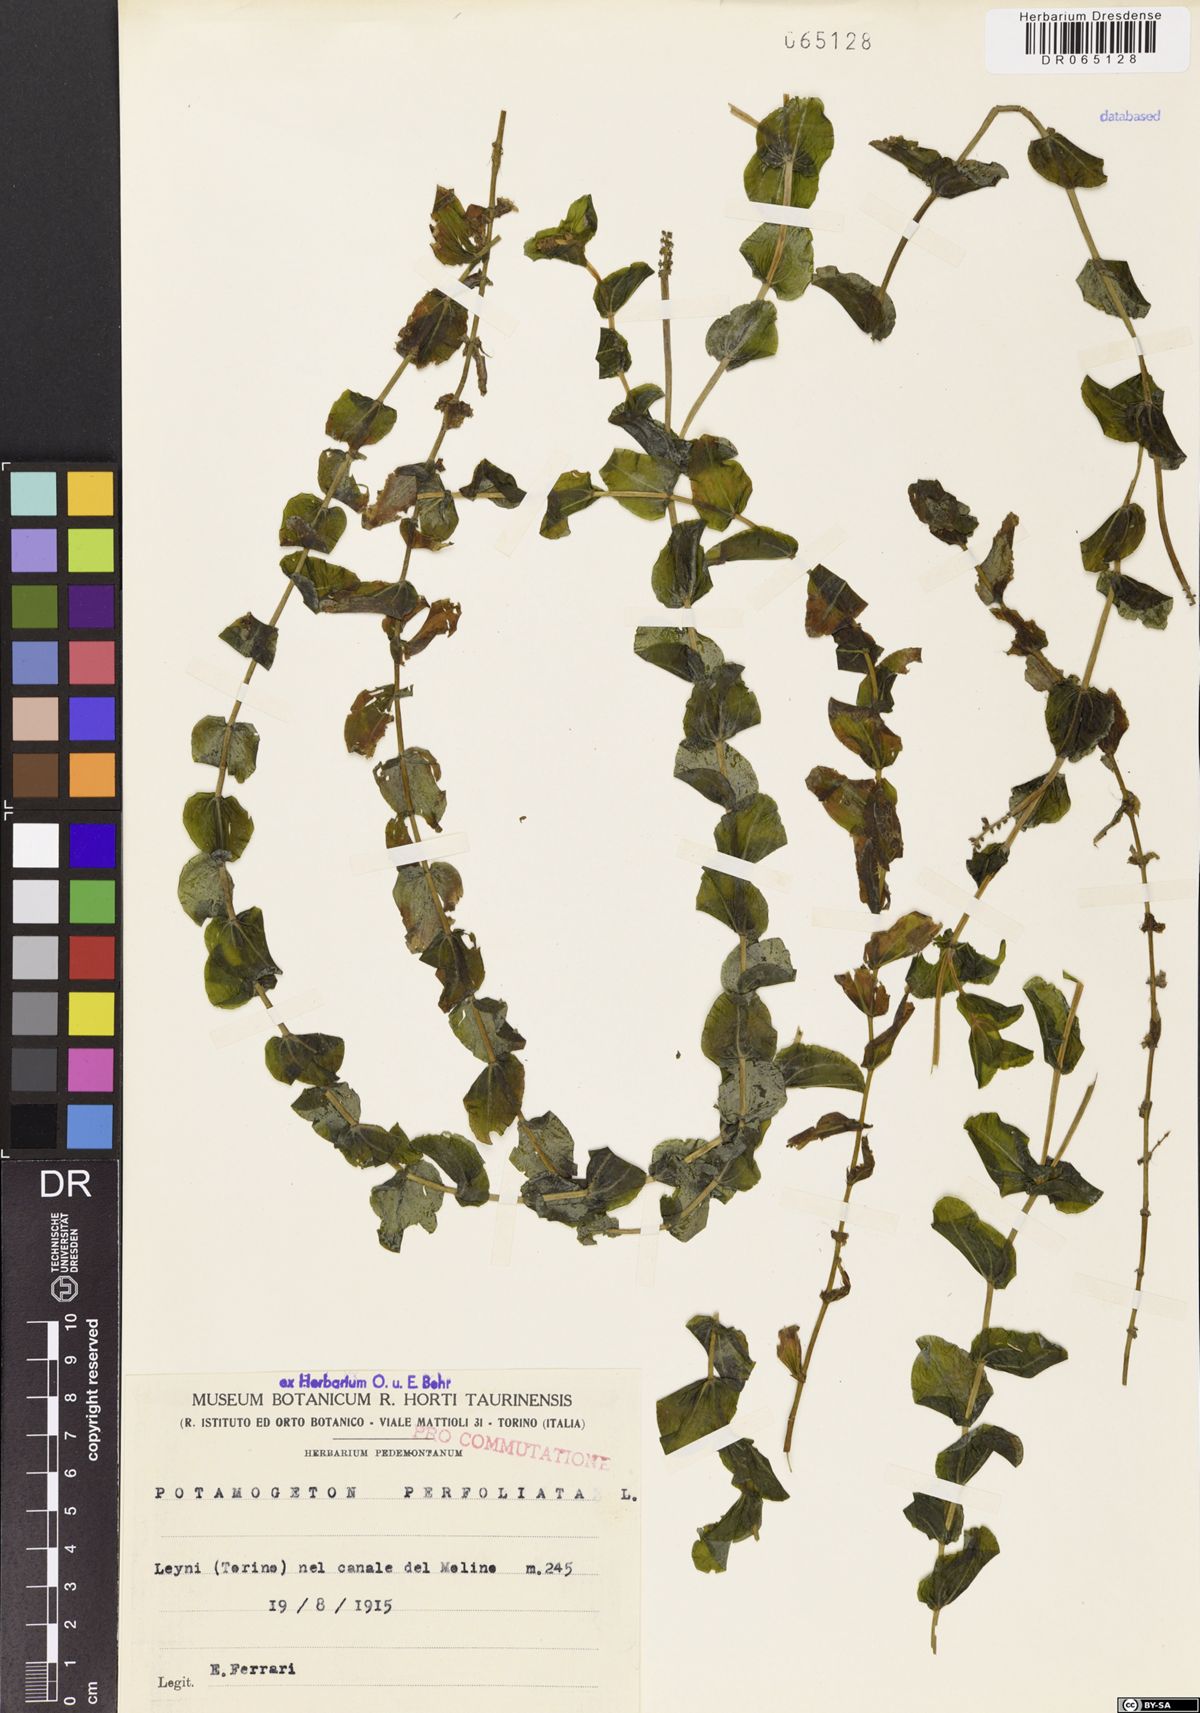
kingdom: Plantae
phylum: Tracheophyta
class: Liliopsida
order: Alismatales
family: Potamogetonaceae
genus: Potamogeton
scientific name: Potamogeton perfoliatus
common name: Perfoliate pondweed
